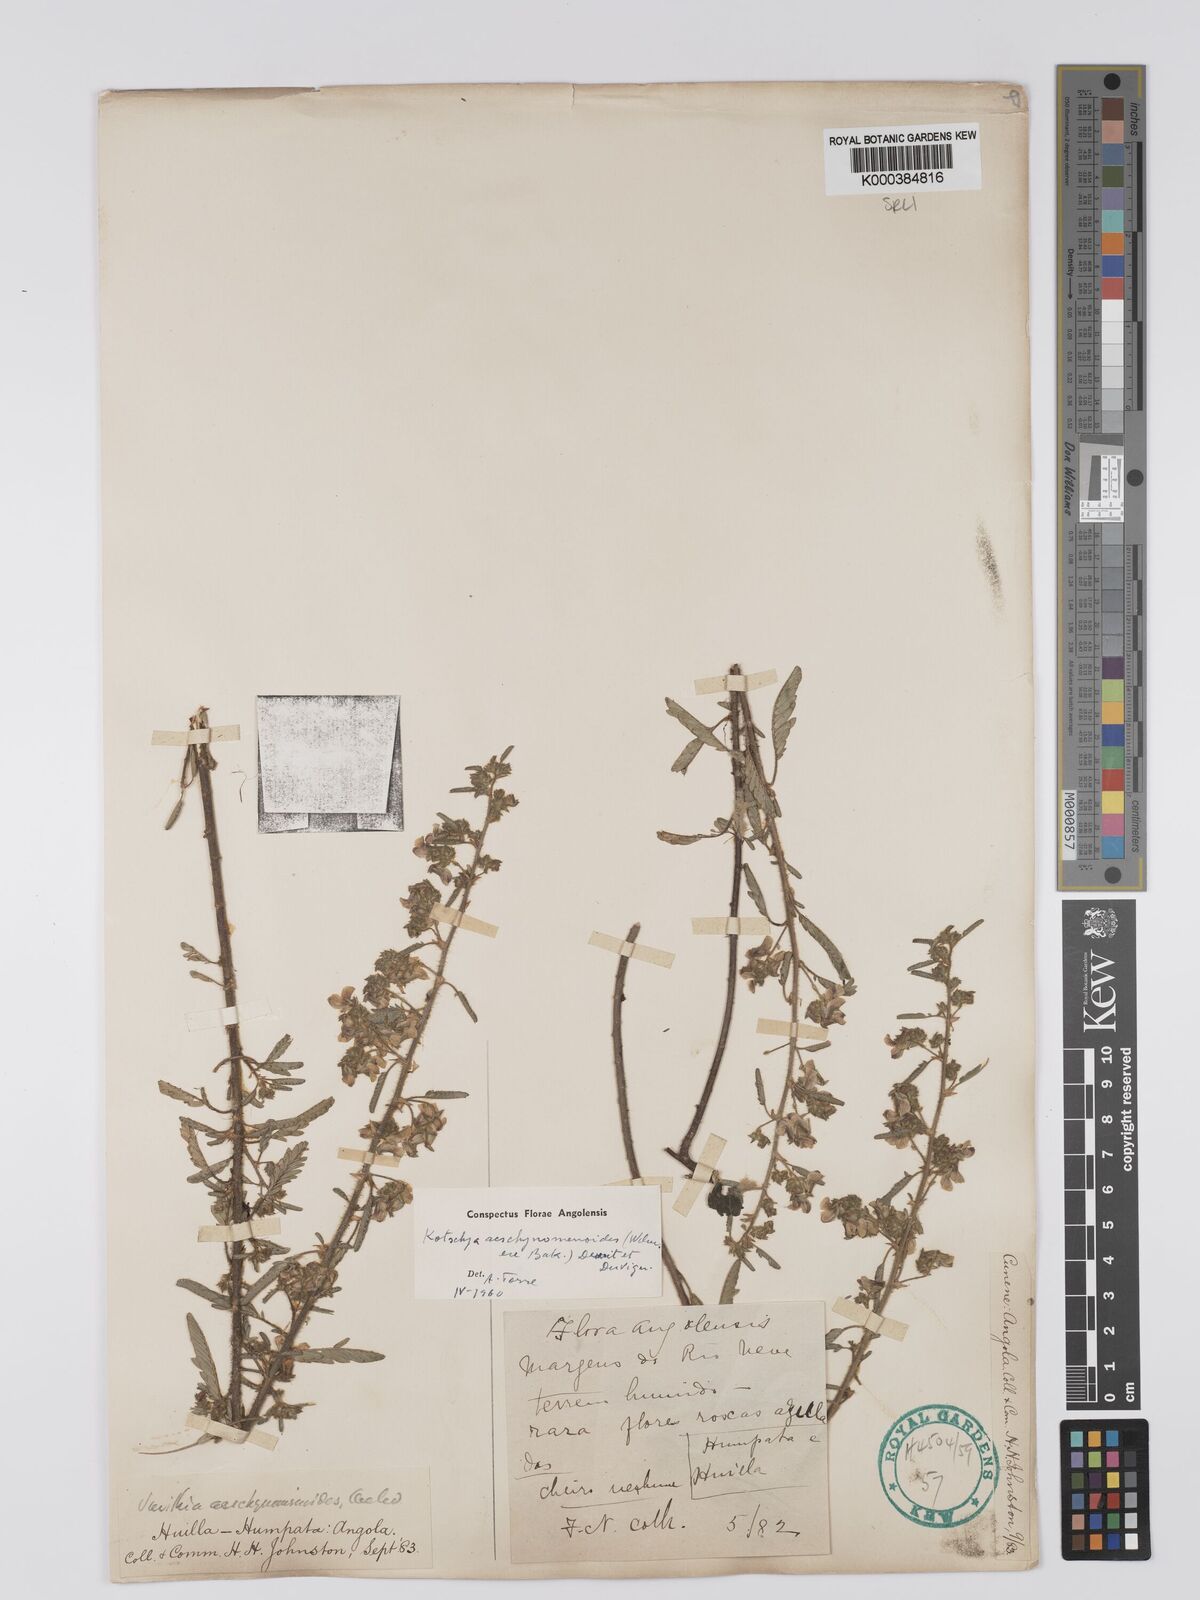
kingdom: Plantae
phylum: Tracheophyta
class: Magnoliopsida
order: Fabales
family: Fabaceae
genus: Kotschya
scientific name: Kotschya aeschynomenoides
